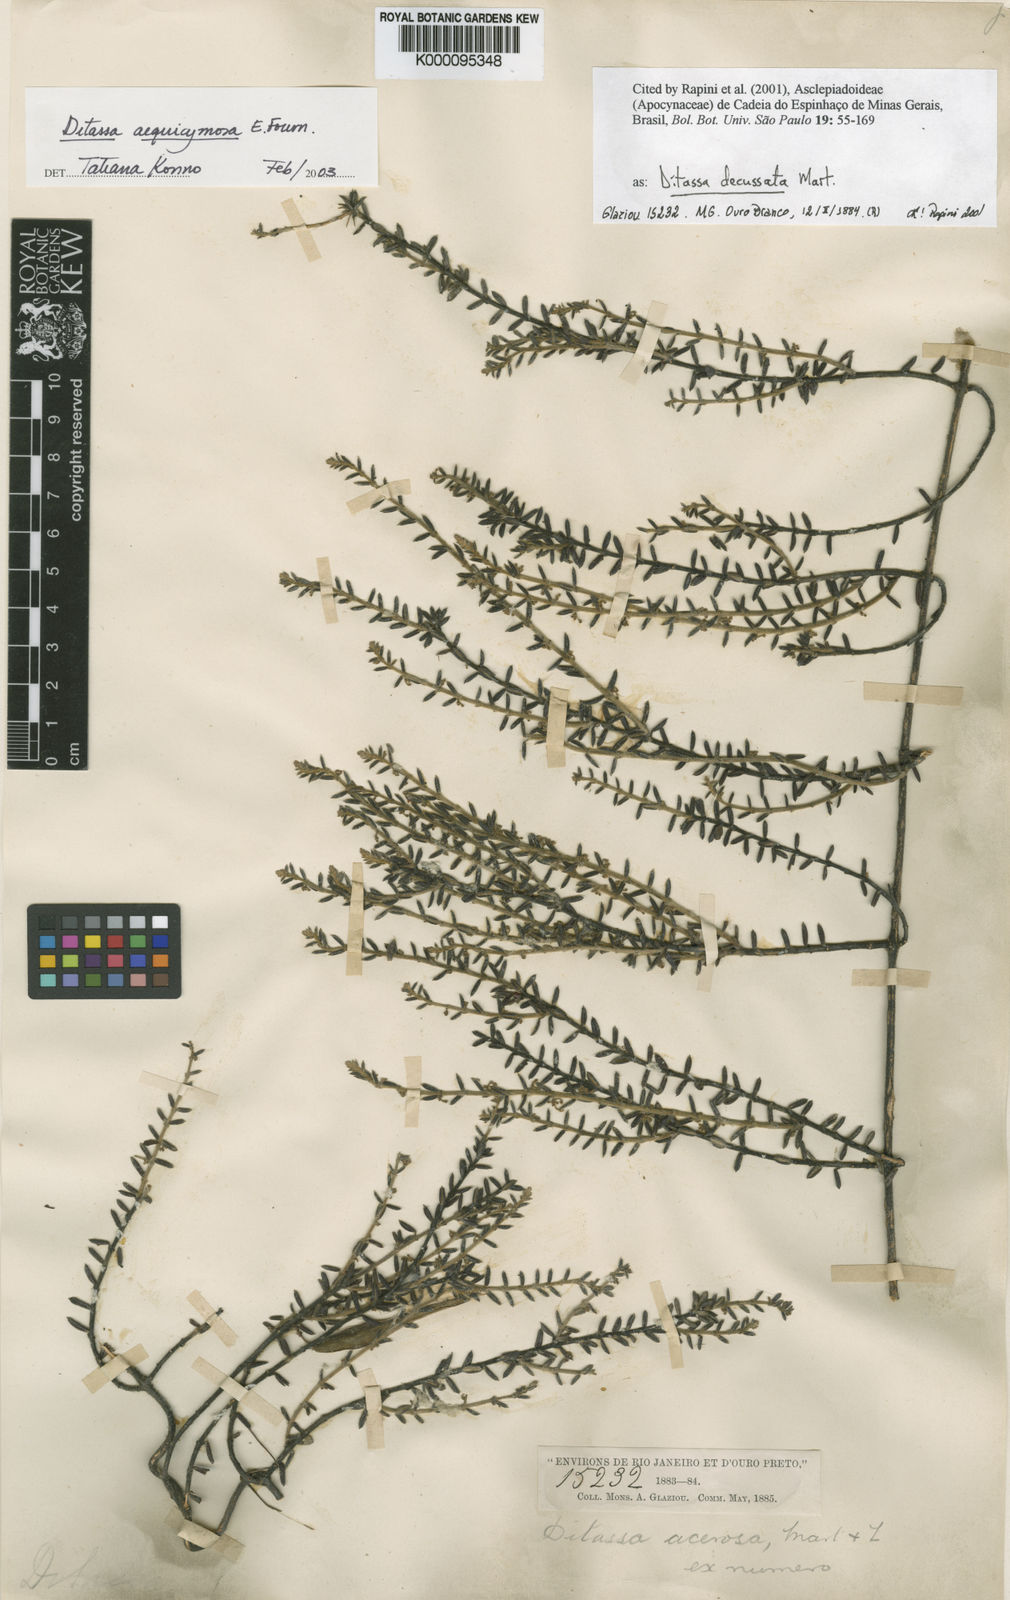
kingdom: Plantae
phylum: Tracheophyta
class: Magnoliopsida
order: Gentianales
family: Apocynaceae
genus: Minaria
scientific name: Minaria decussata
